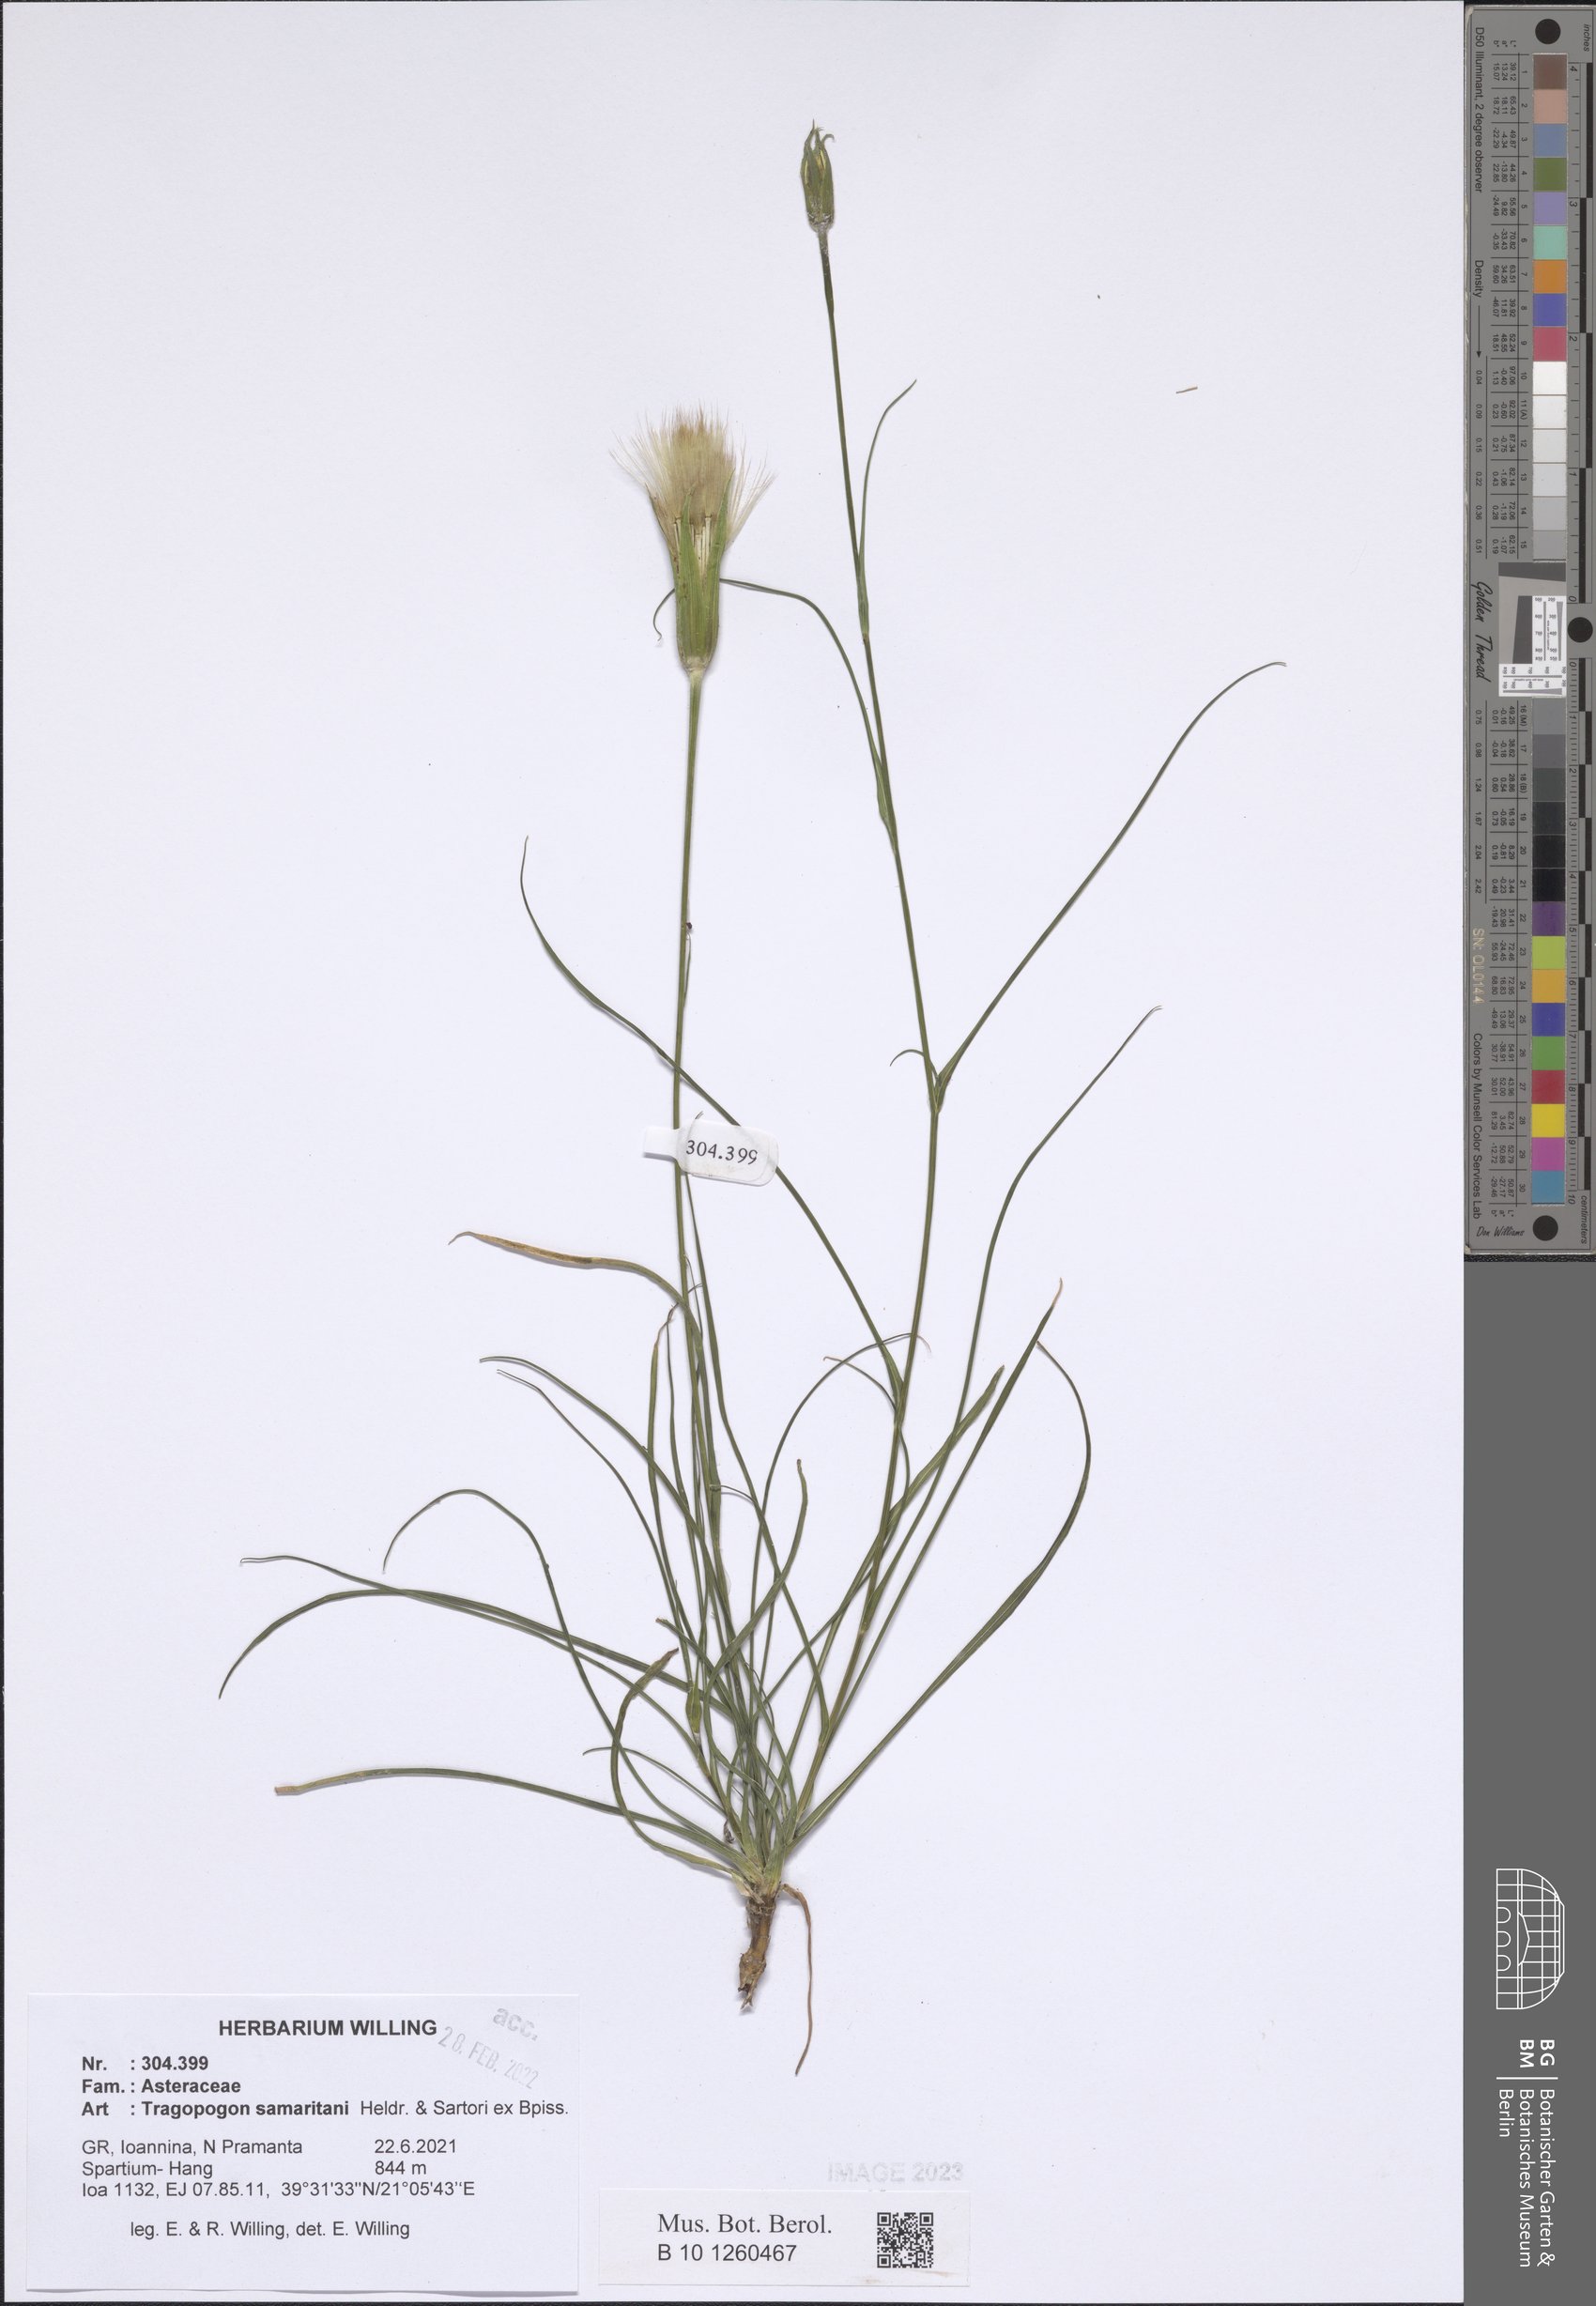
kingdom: Plantae
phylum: Tracheophyta
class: Magnoliopsida
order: Asterales
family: Asteraceae
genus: Tragopogon
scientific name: Tragopogon samaritani
